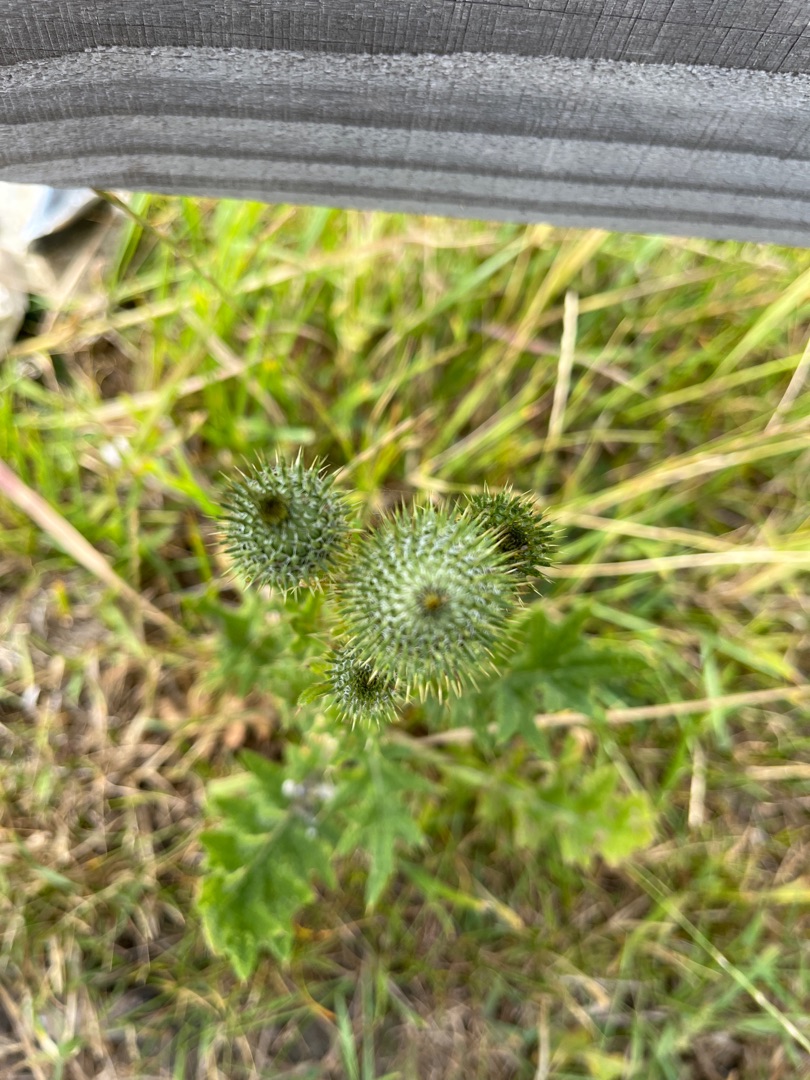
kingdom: Plantae
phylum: Tracheophyta
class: Magnoliopsida
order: Asterales
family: Asteraceae
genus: Cirsium
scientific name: Cirsium vulgare
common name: Horse-tidsel
